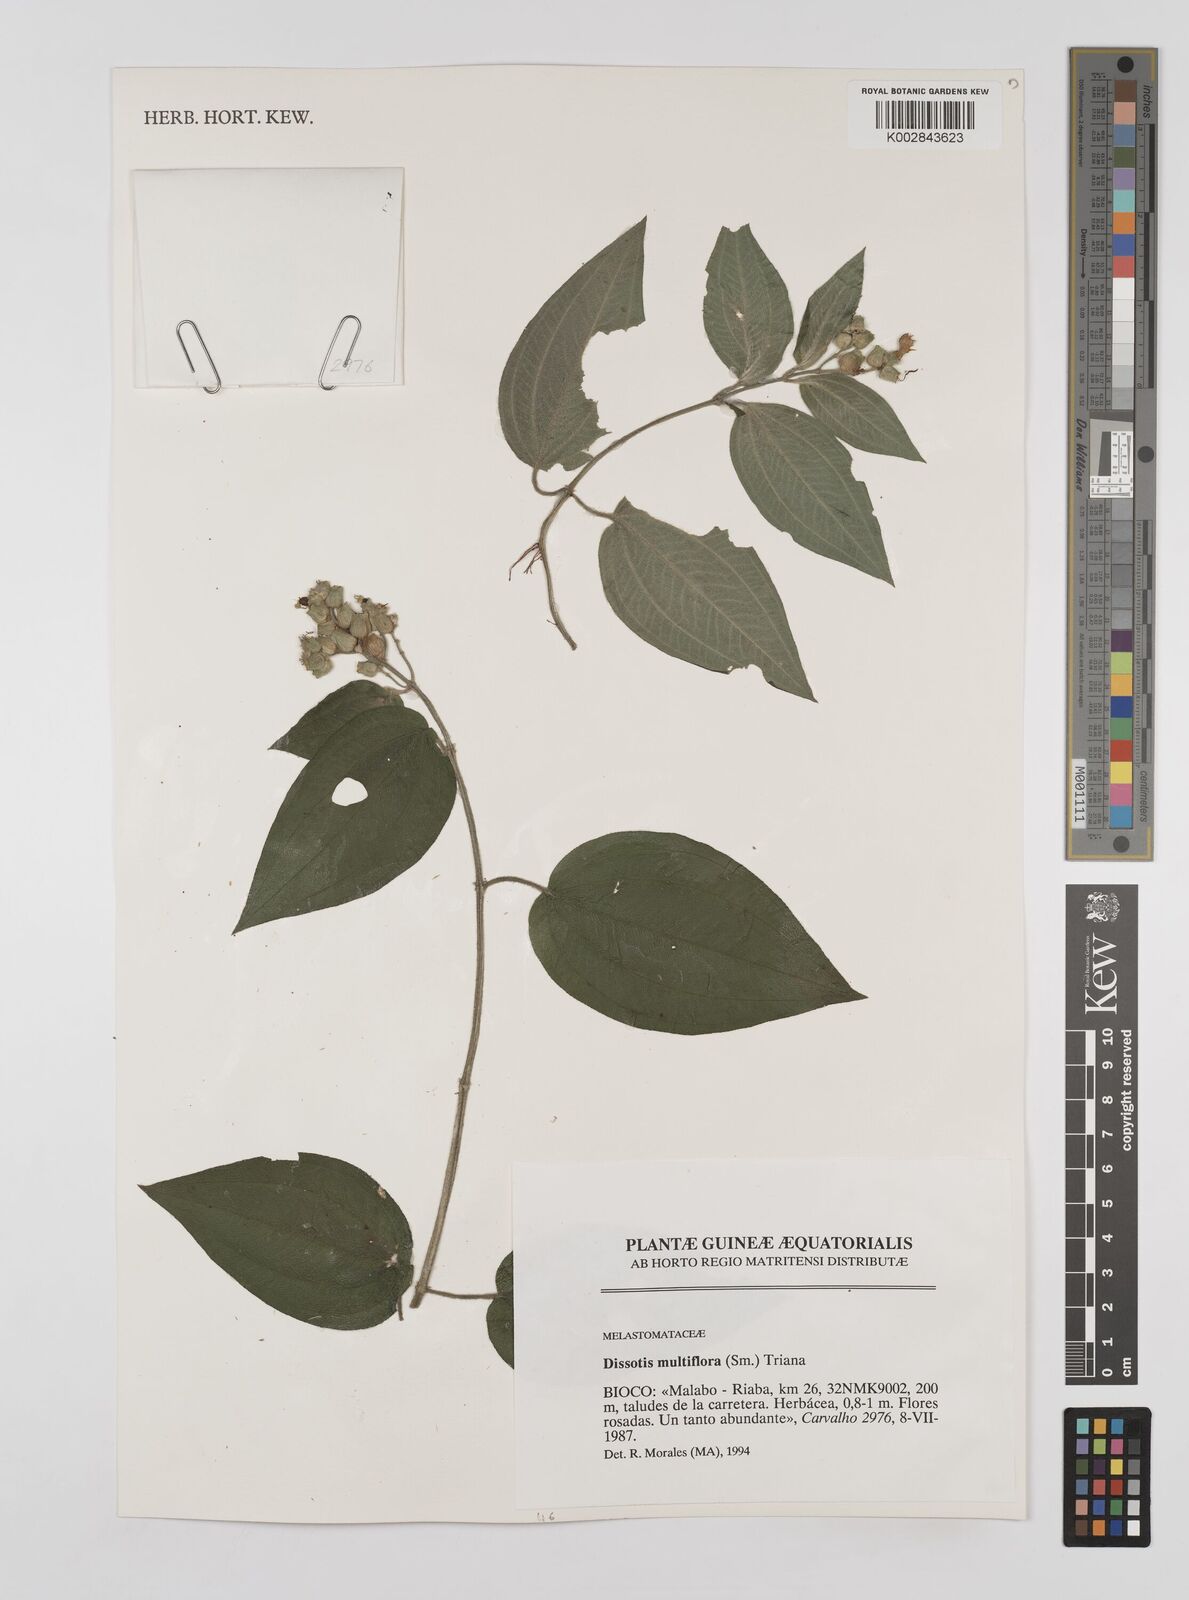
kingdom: Plantae
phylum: Tracheophyta
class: Magnoliopsida
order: Myrtales
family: Melastomataceae
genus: Dupineta
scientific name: Dupineta multiflora
